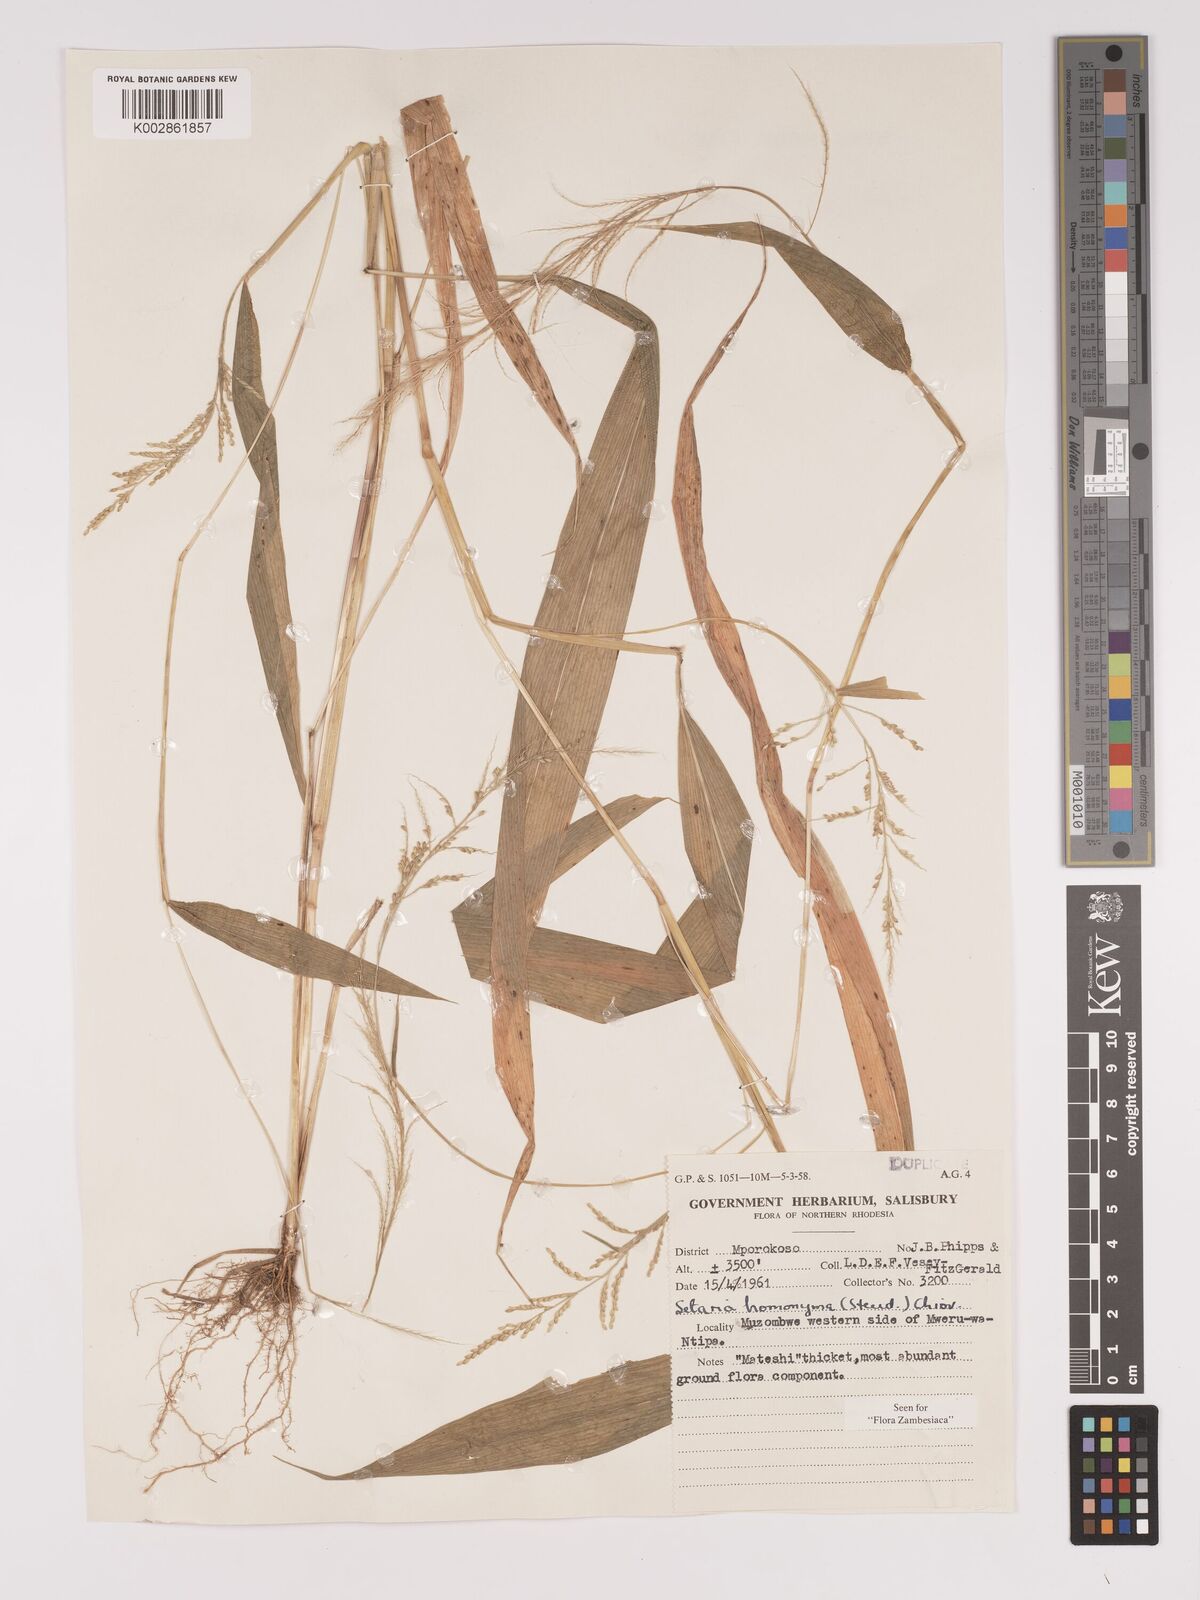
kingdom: Plantae
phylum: Tracheophyta
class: Liliopsida
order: Poales
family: Poaceae
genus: Setaria
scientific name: Setaria homonyma
